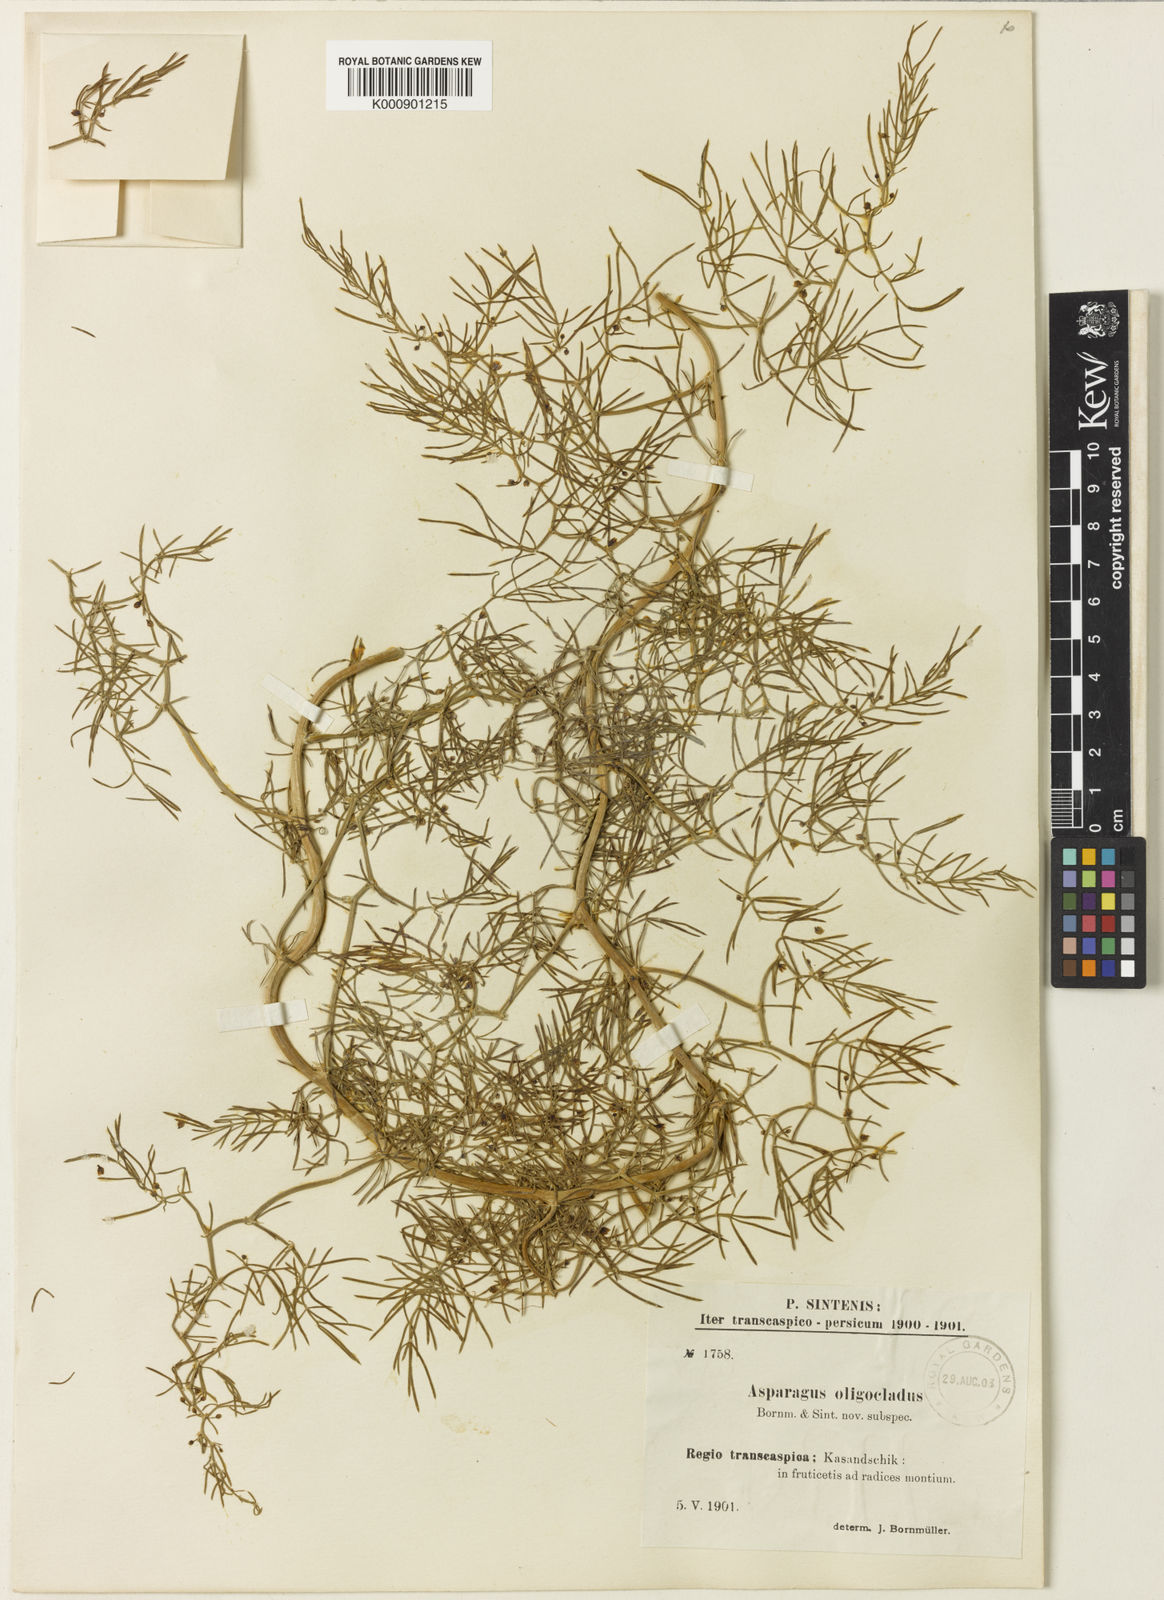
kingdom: Plantae
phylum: Tracheophyta
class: Liliopsida
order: Asparagales
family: Asparagaceae
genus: Asparagus
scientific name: Asparagus
